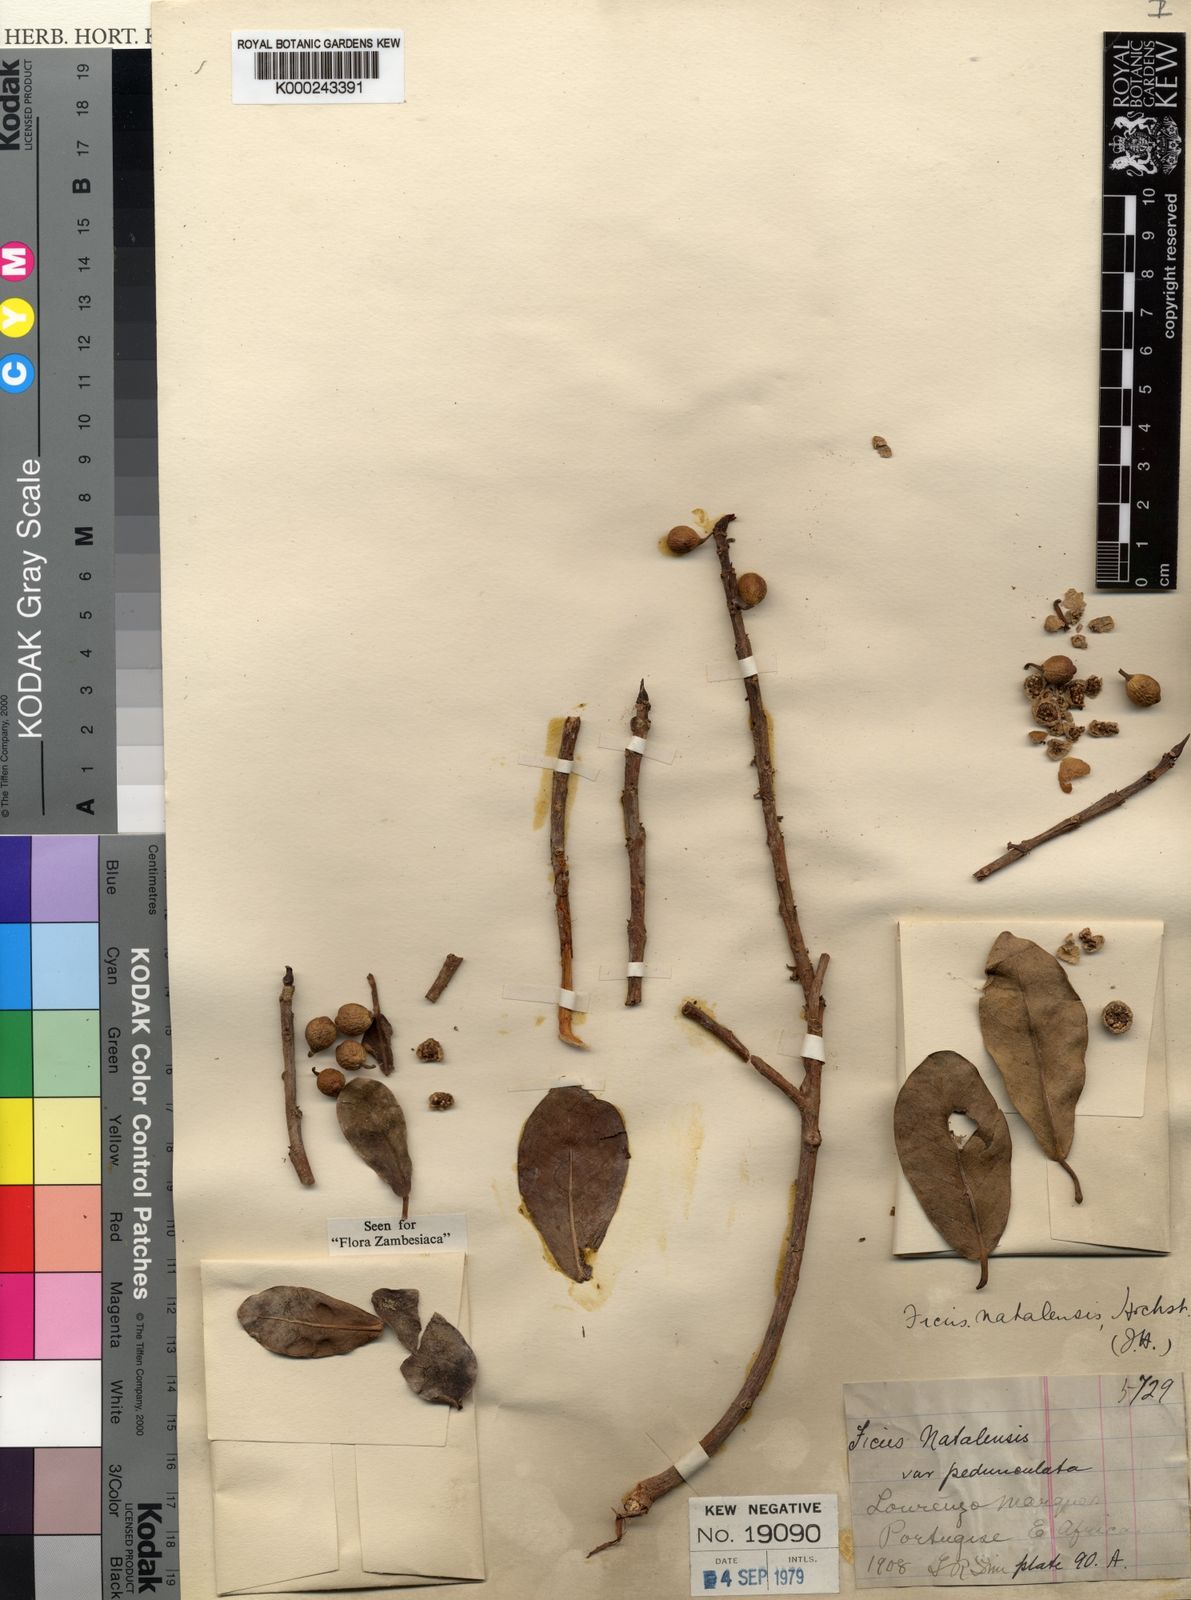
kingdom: Plantae
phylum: Tracheophyta
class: Magnoliopsida
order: Rosales
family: Moraceae
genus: Ficus
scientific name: Ficus natalensis
